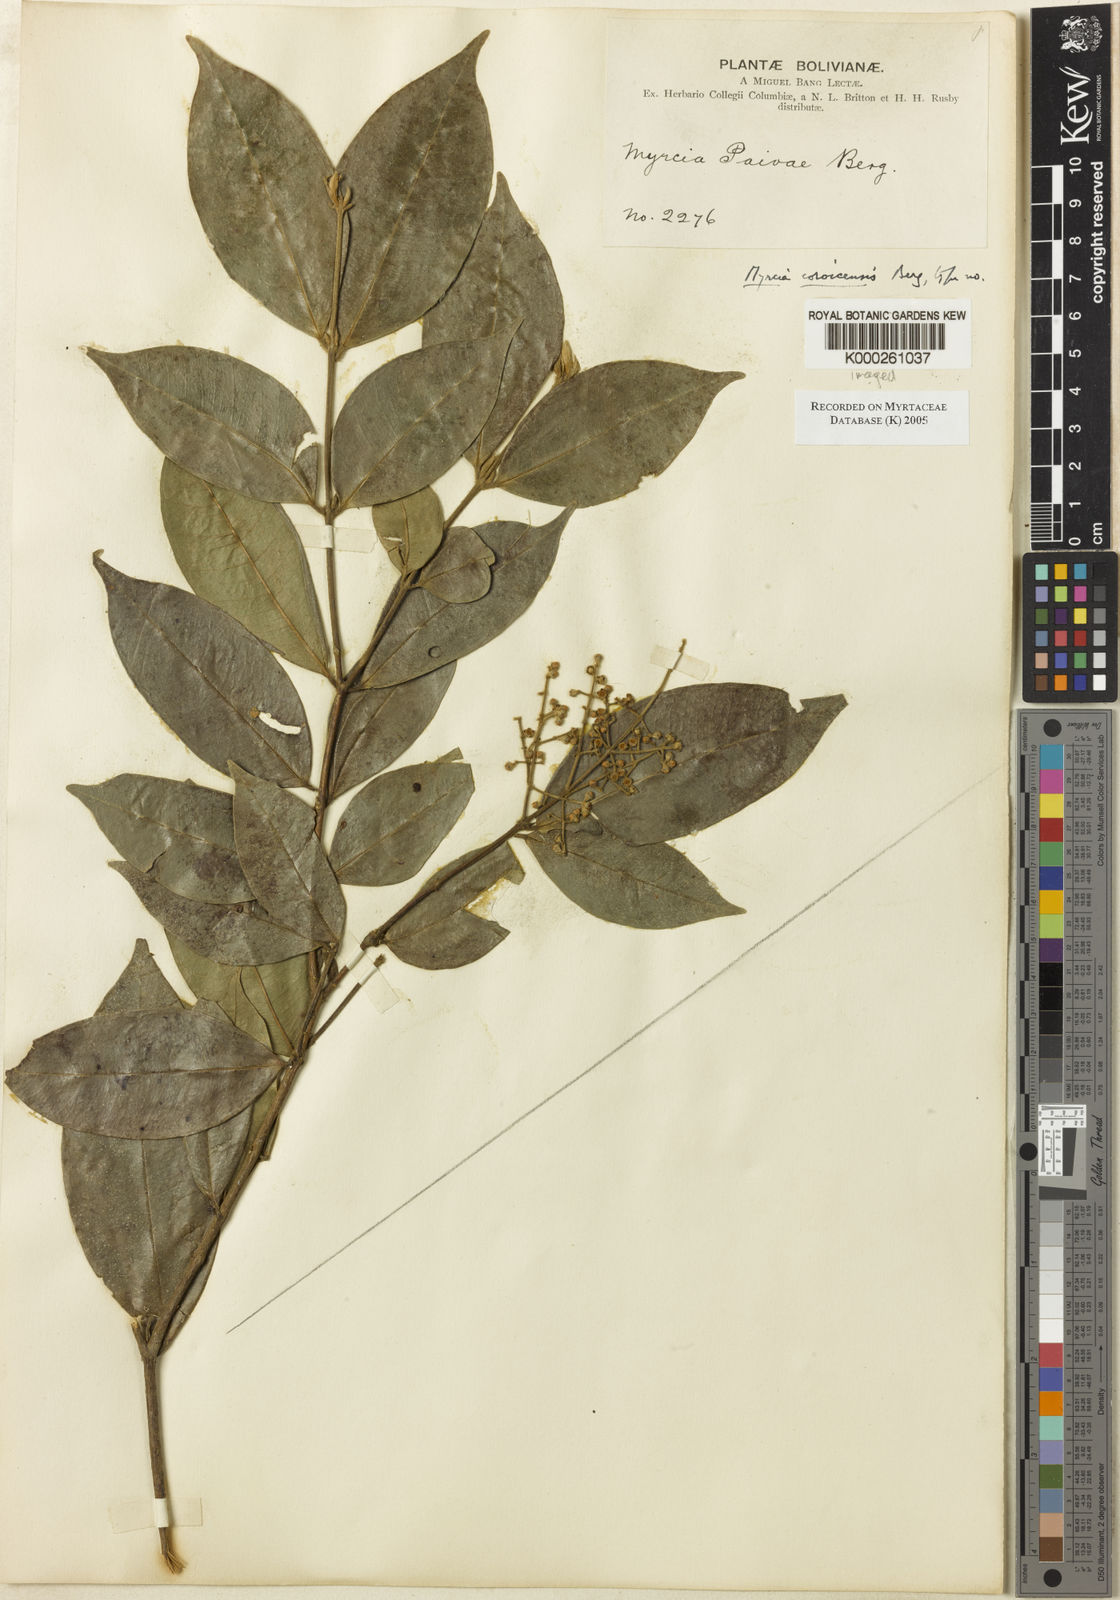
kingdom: Plantae
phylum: Tracheophyta
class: Magnoliopsida
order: Myrtales
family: Myrtaceae
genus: Myrcia
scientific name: Myrcia
